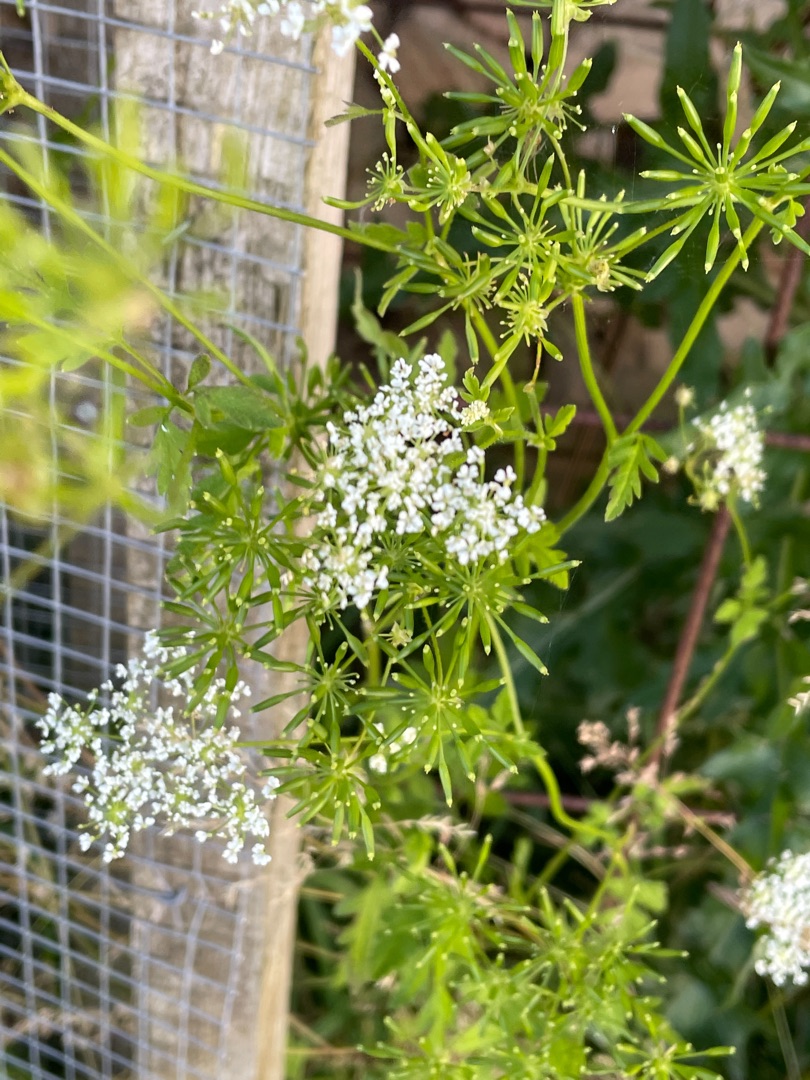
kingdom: Plantae
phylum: Tracheophyta
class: Magnoliopsida
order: Apiales
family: Apiaceae
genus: Chaerophyllum
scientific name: Chaerophyllum temulum
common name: Almindelig hulsvøb
